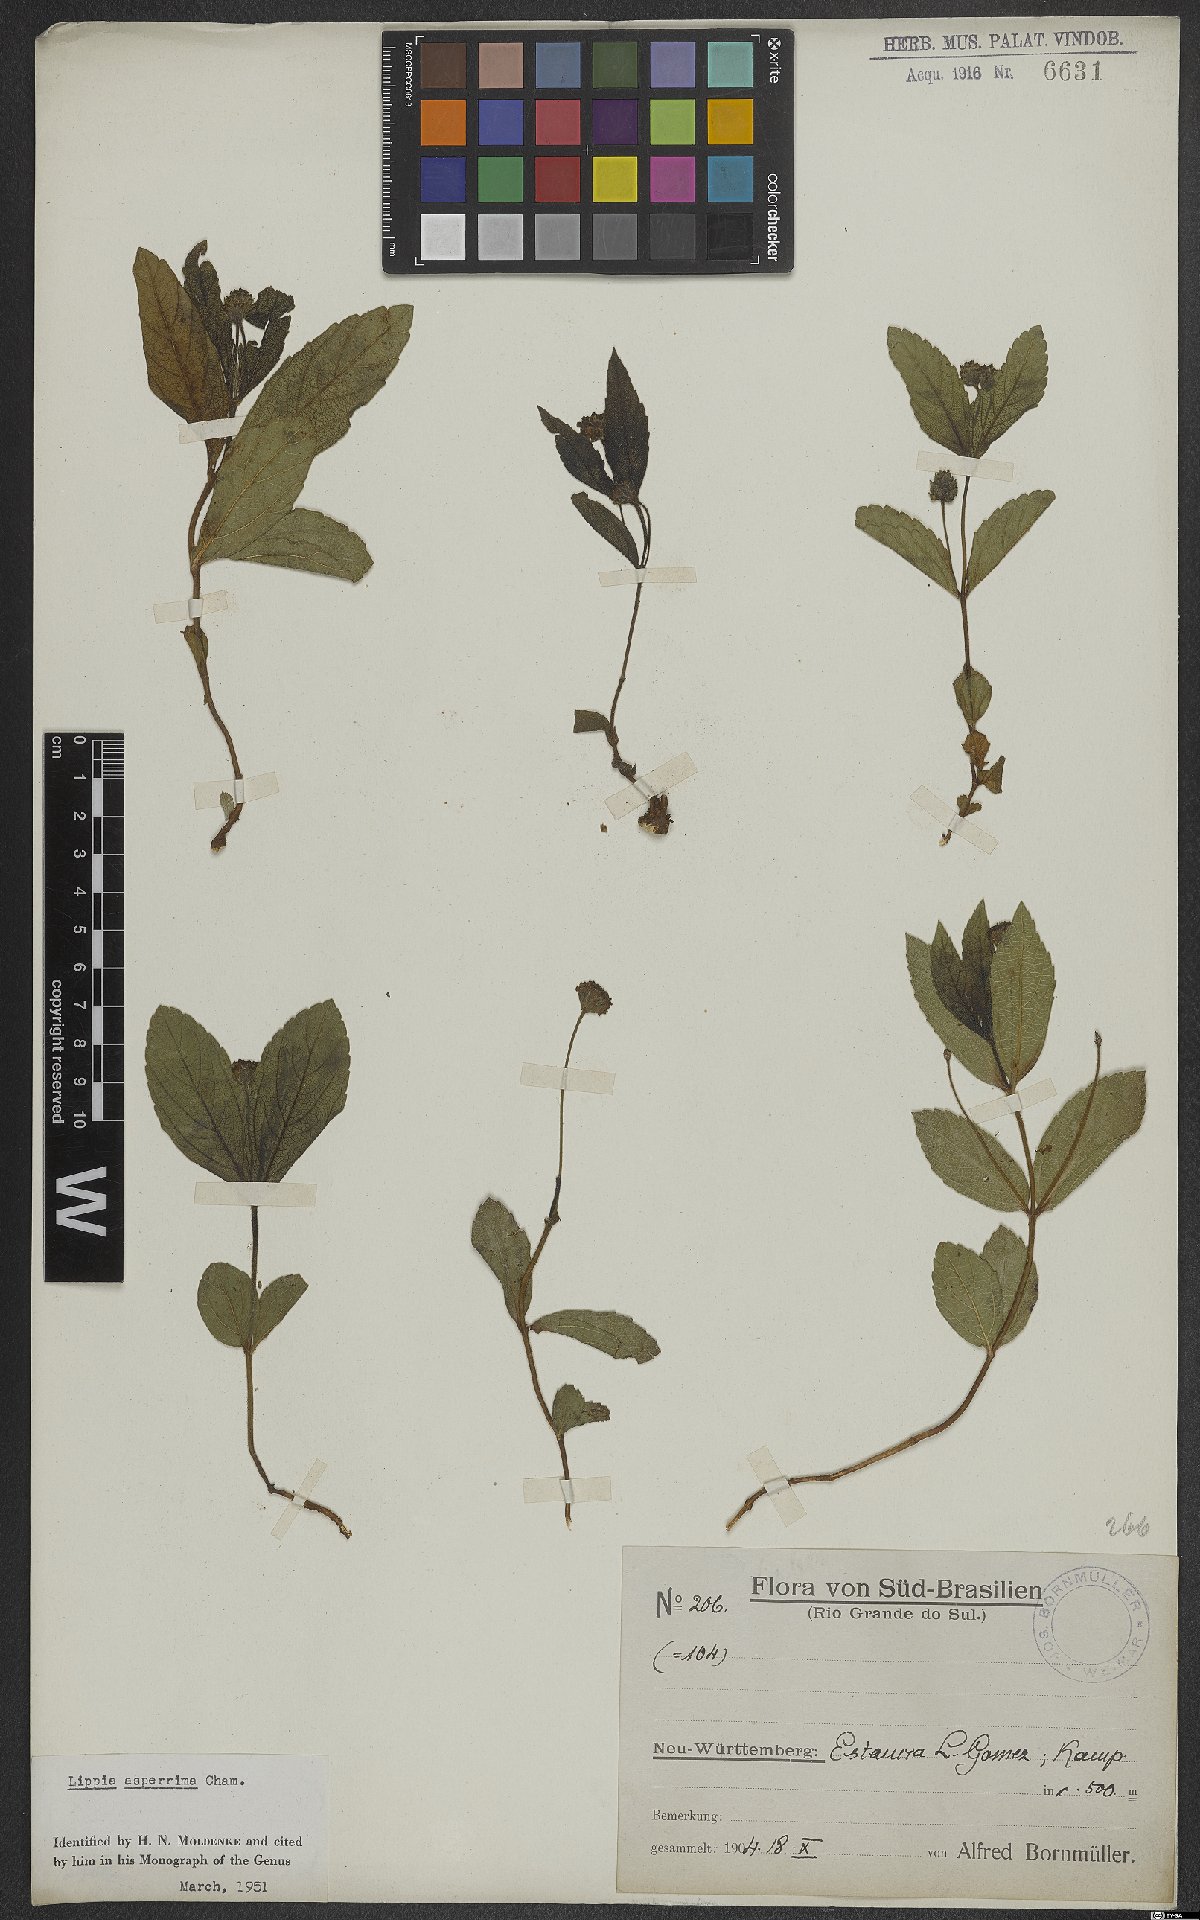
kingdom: Plantae
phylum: Tracheophyta
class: Magnoliopsida
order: Lamiales
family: Verbenaceae
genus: Lippia
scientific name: Lippia asperrima
